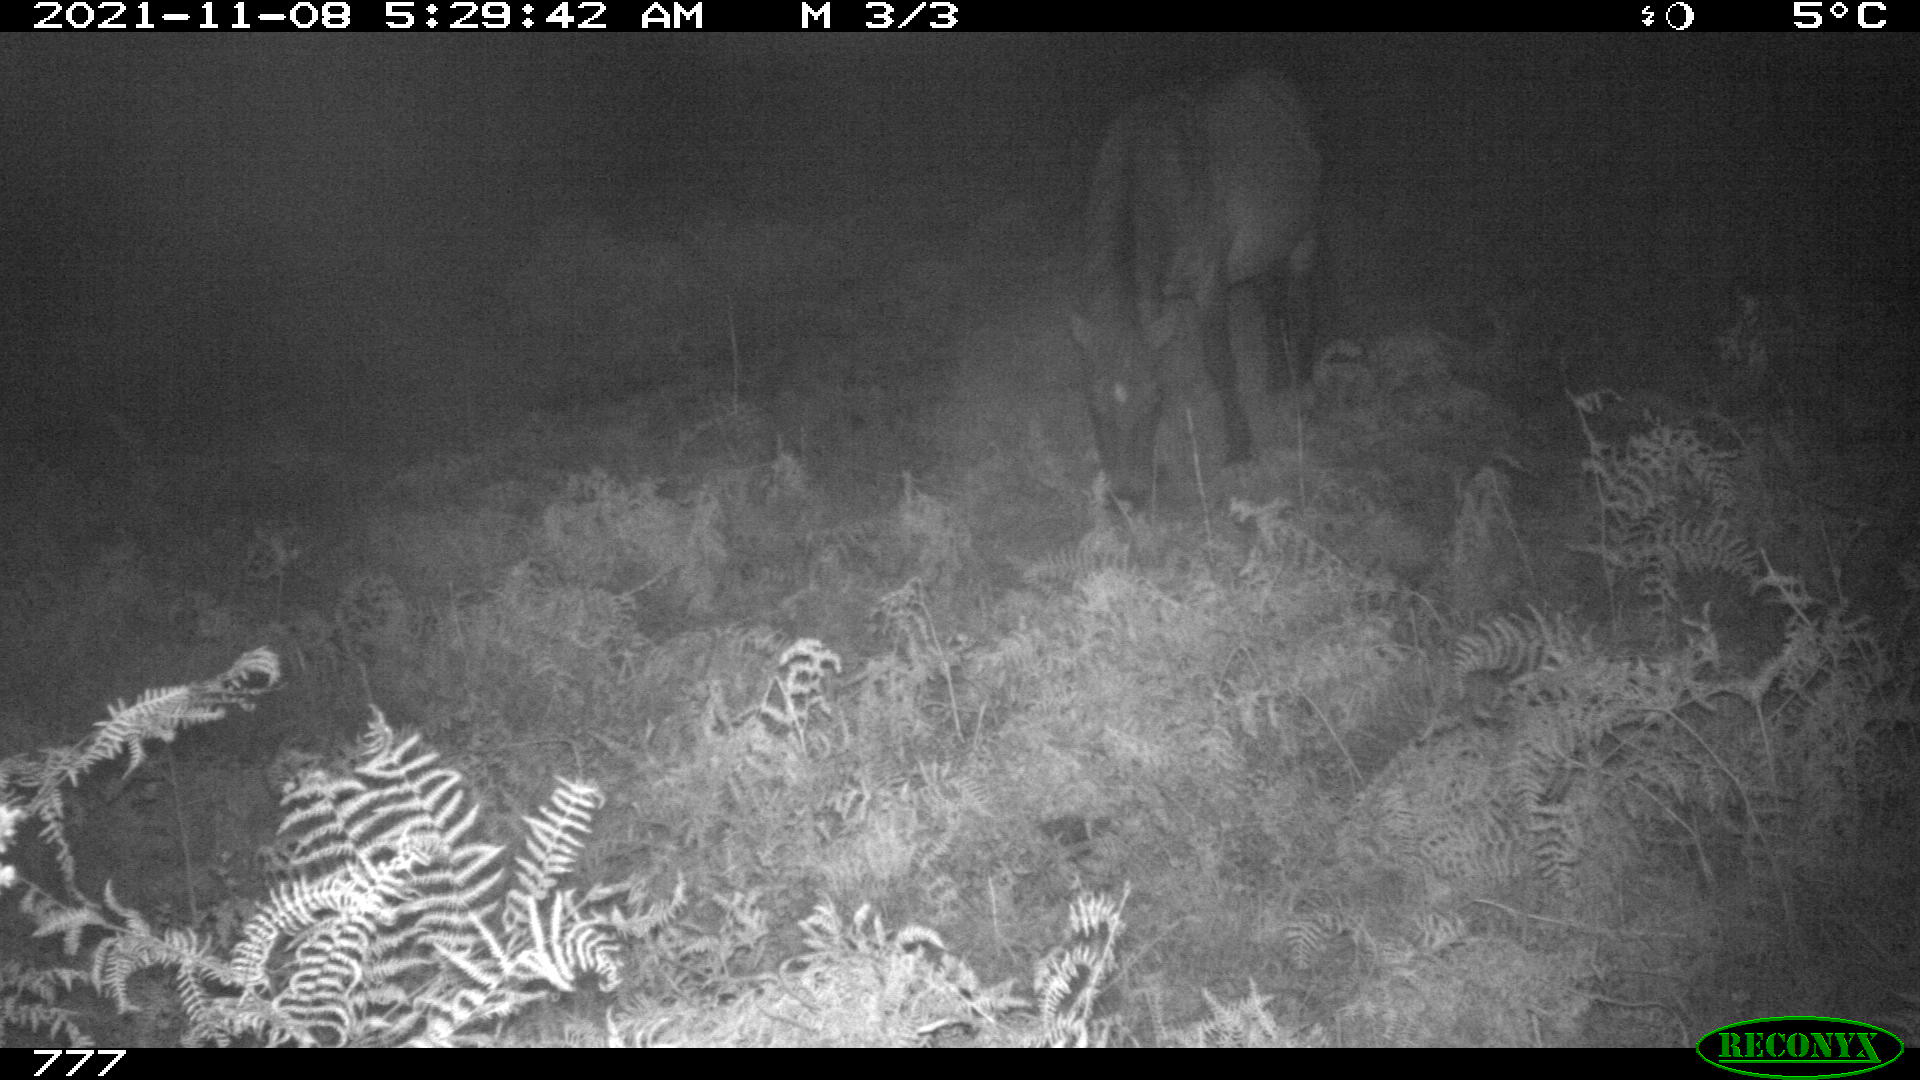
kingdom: Animalia
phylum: Chordata
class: Mammalia
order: Perissodactyla
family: Equidae
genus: Equus
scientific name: Equus caballus
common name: Horse
